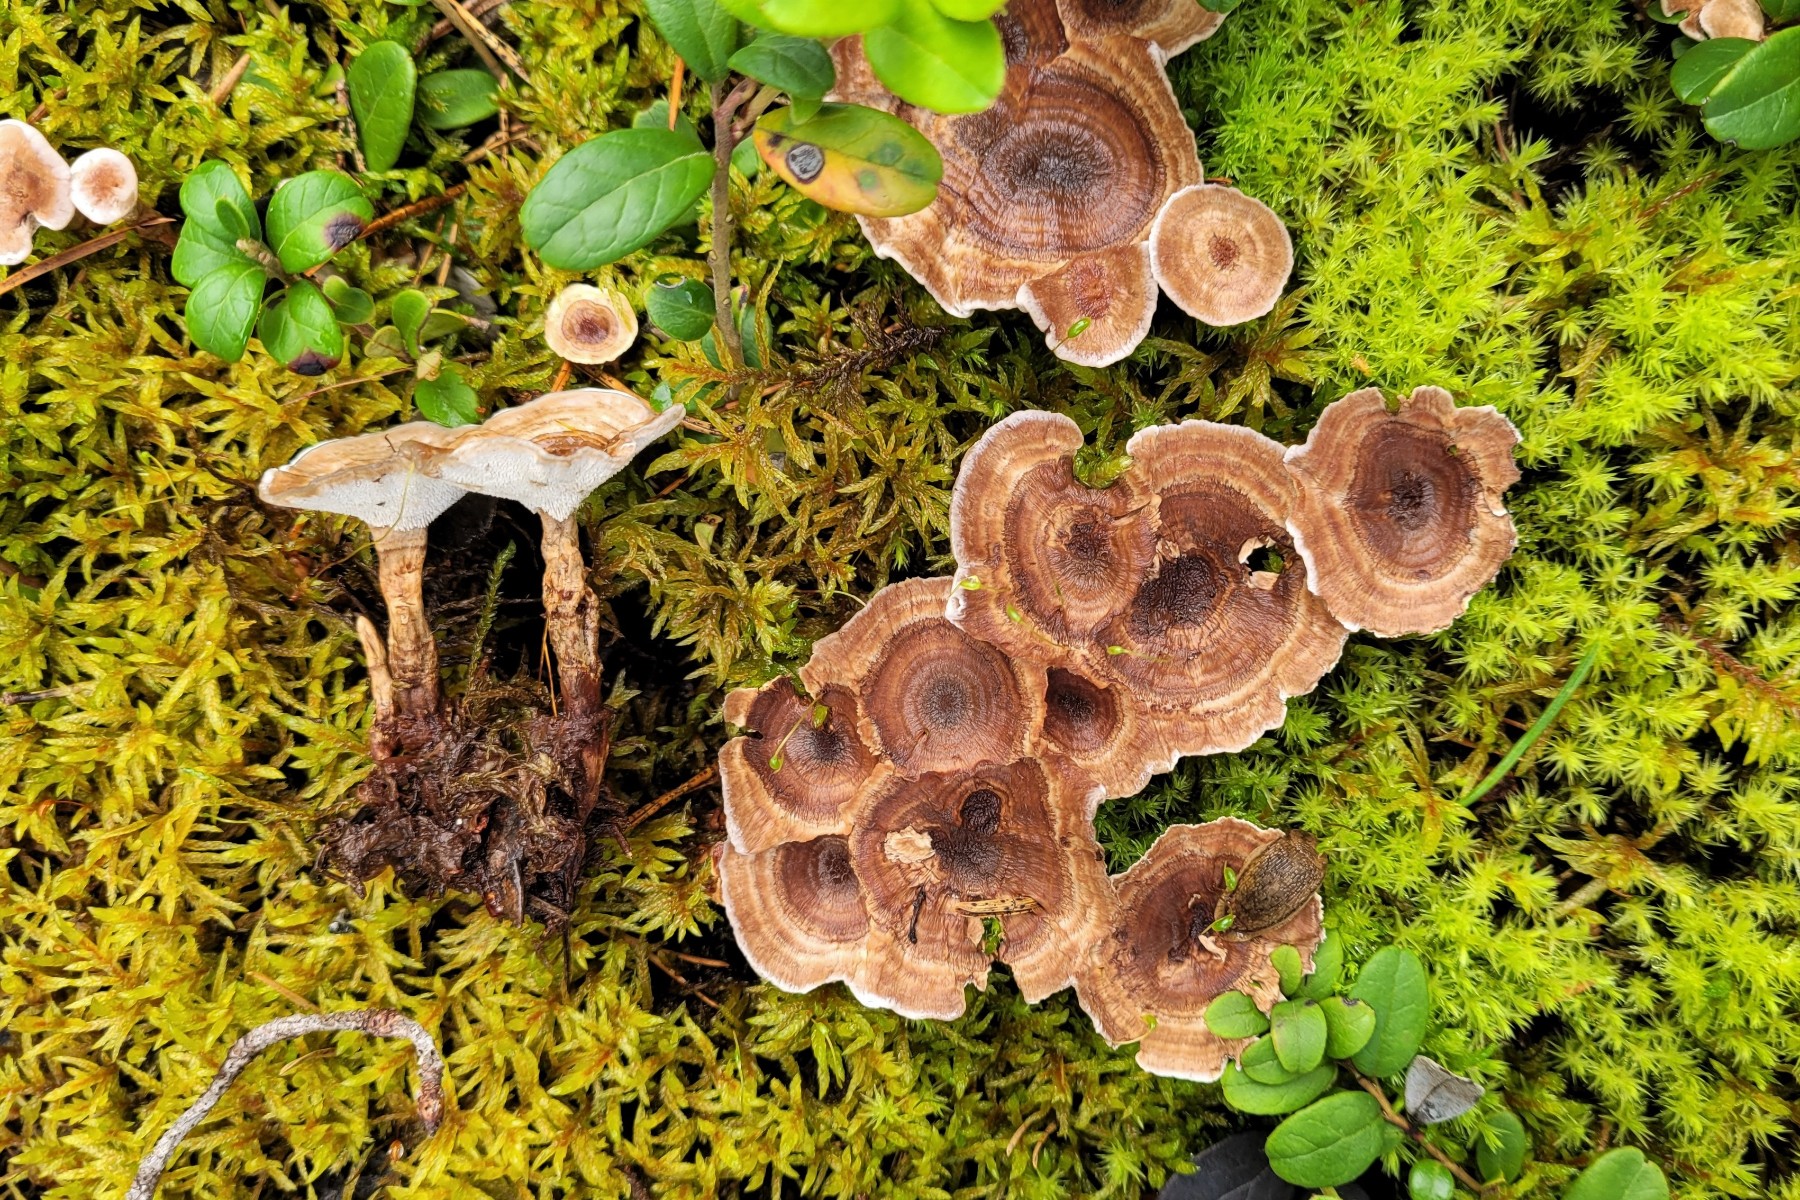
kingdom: Fungi
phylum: Basidiomycota
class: Agaricomycetes
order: Thelephorales
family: Thelephoraceae
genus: Phellodon
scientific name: Phellodon tomentosus
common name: tragtformet duftpigsvamp
